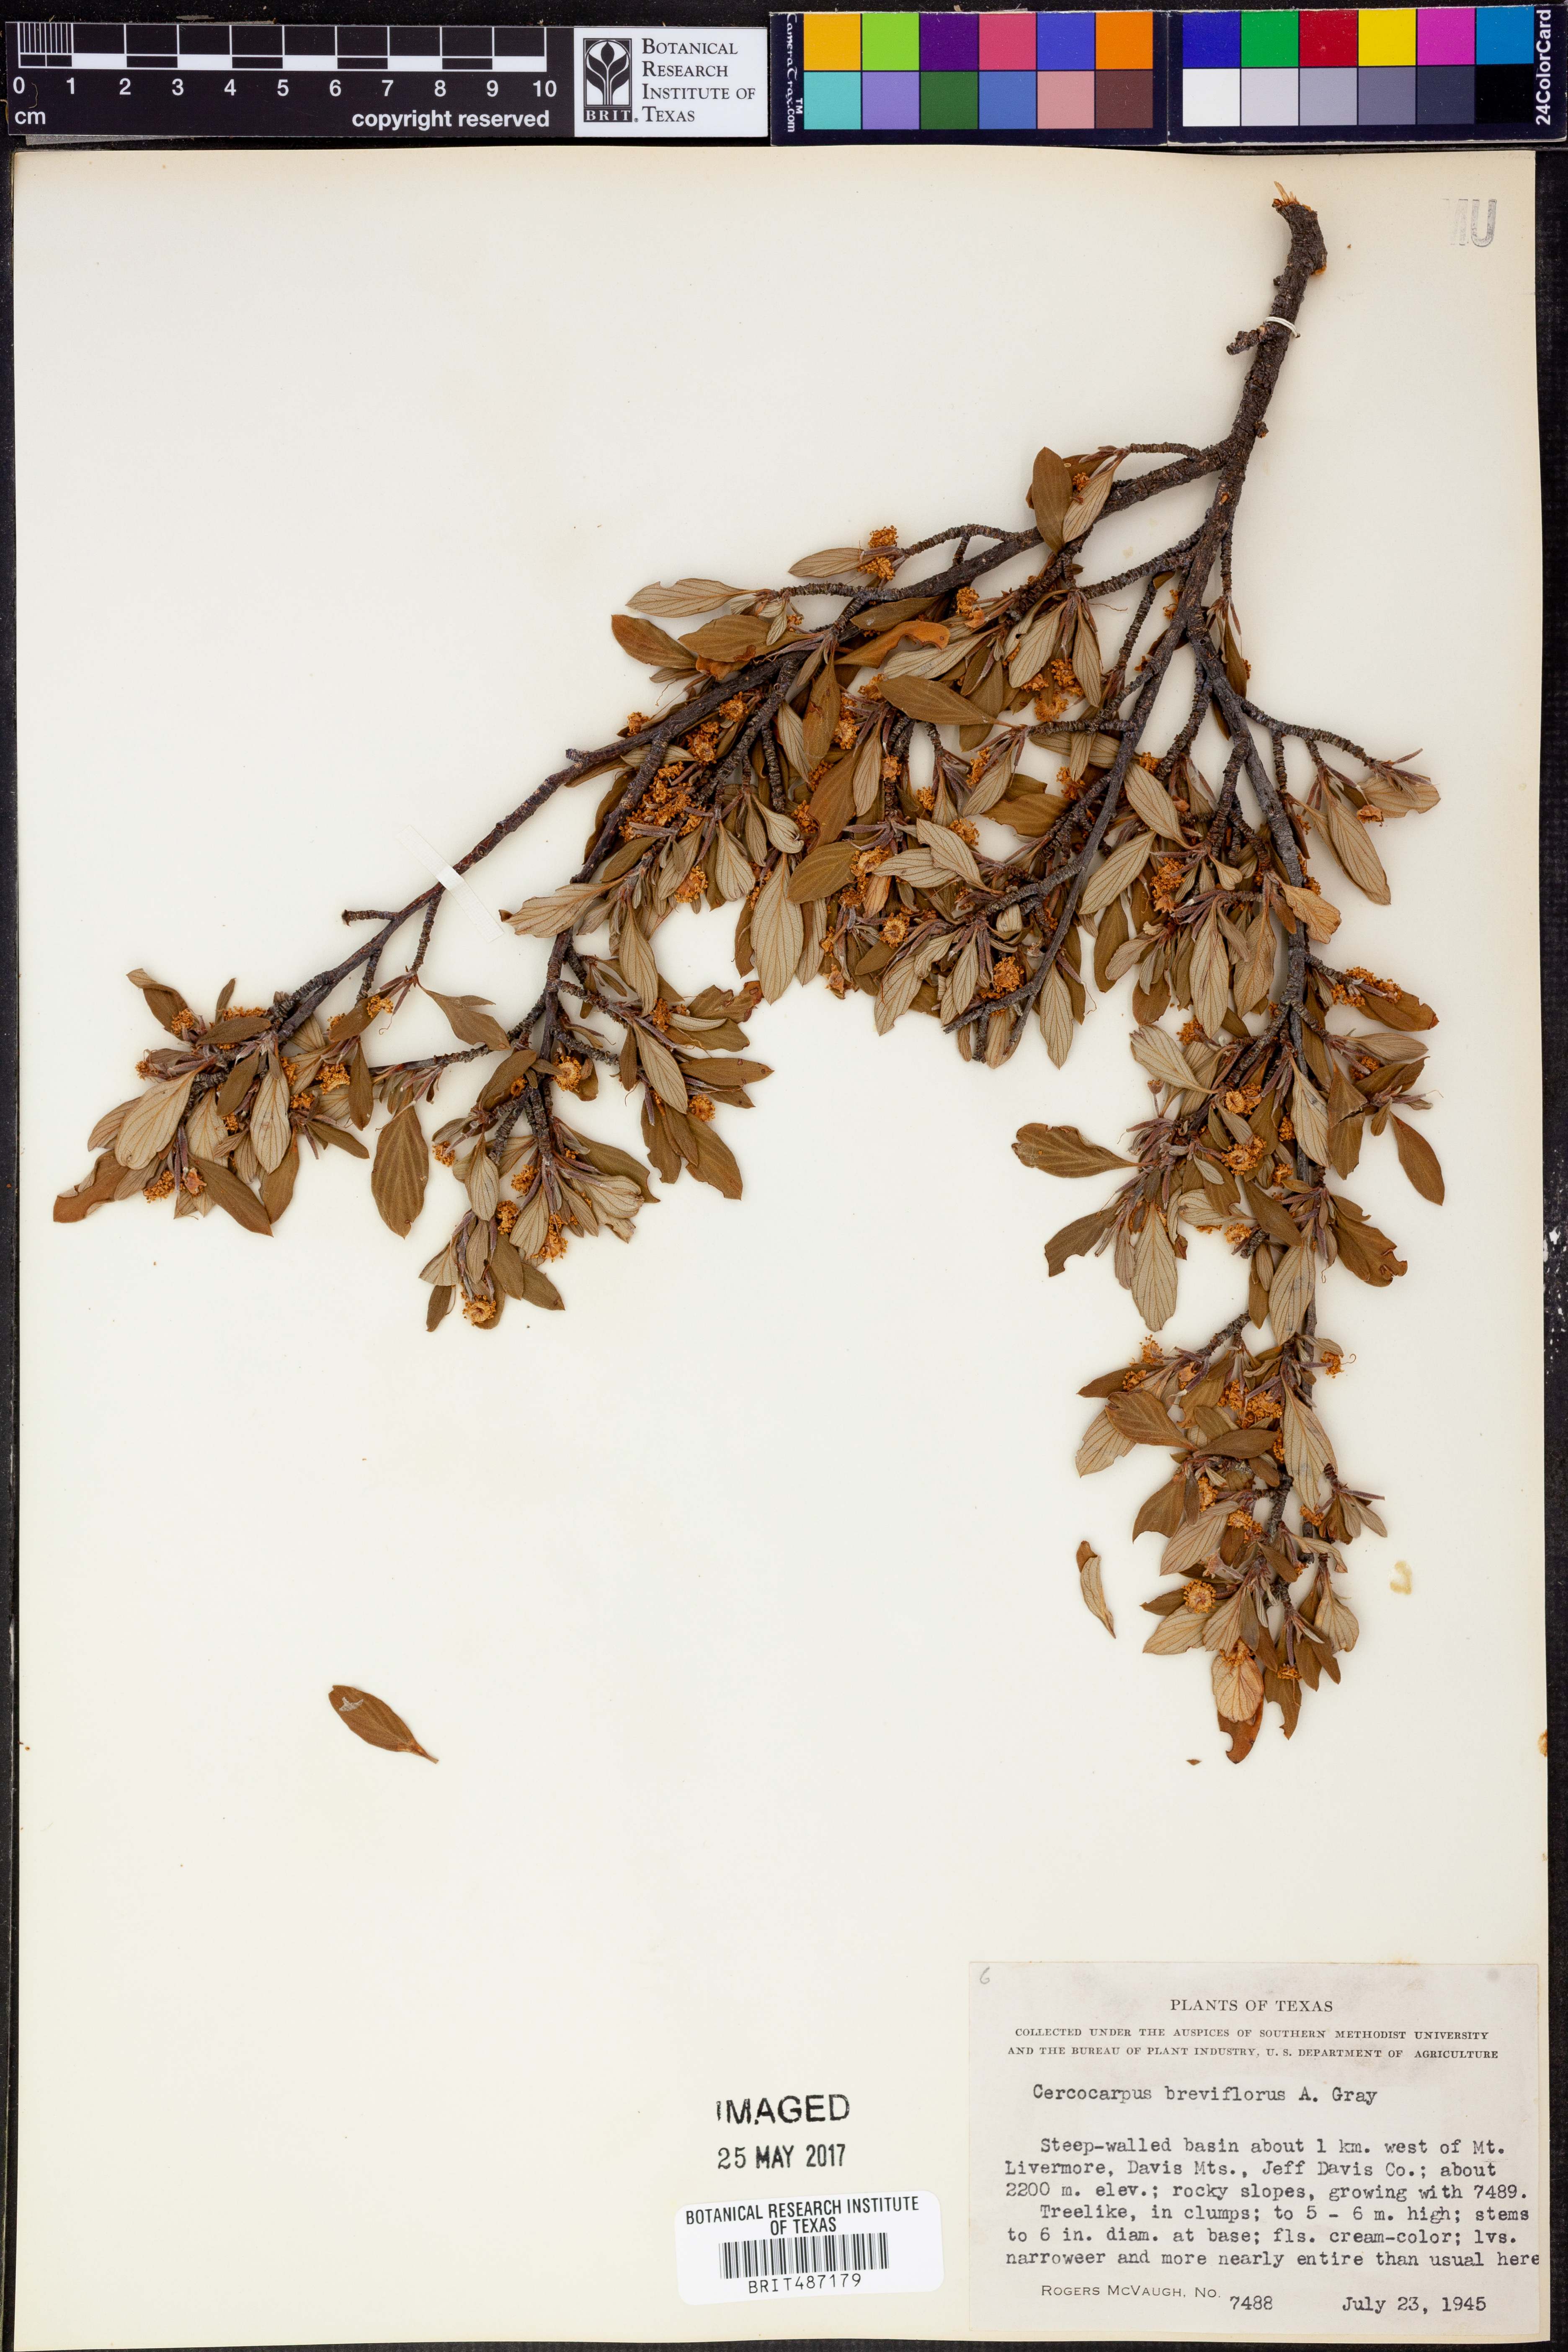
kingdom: Plantae
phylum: Tracheophyta
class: Magnoliopsida
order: Rosales
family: Rosaceae
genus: Cercocarpus
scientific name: Cercocarpus breviflorus
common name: Wright's mountain-mahogany
